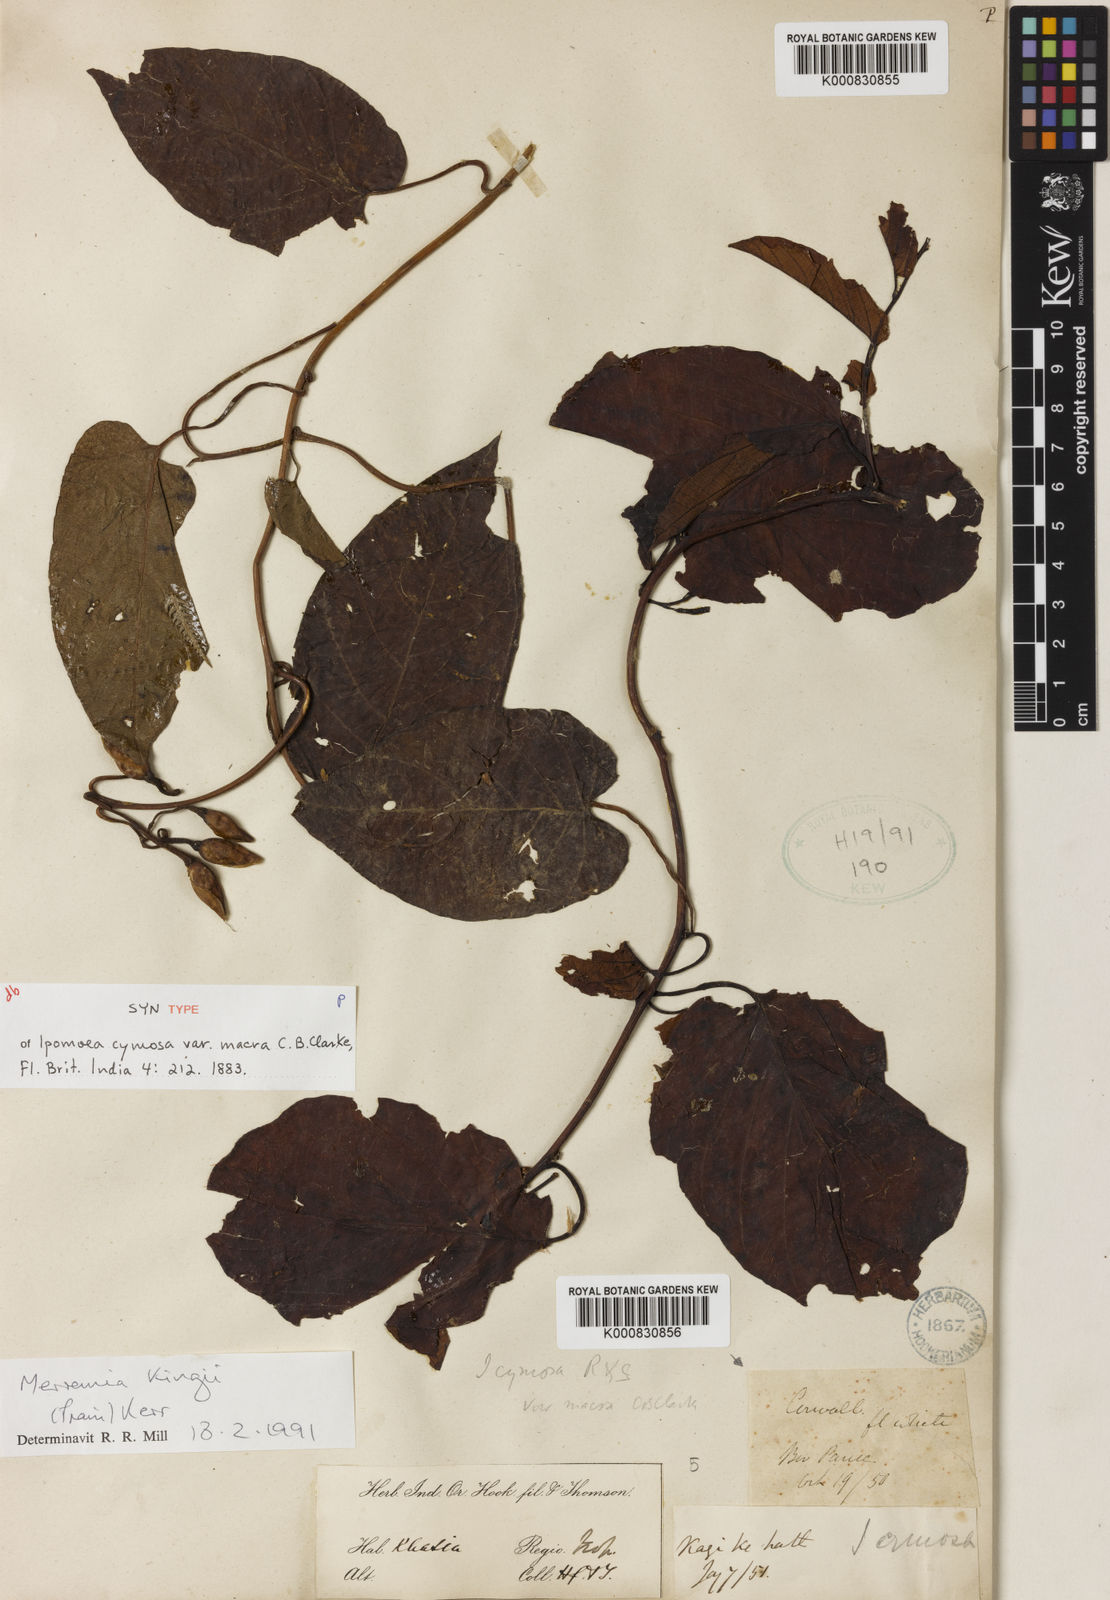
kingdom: Plantae
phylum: Tracheophyta
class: Magnoliopsida
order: Solanales
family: Convolvulaceae
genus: Camonea
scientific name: Camonea kingii
